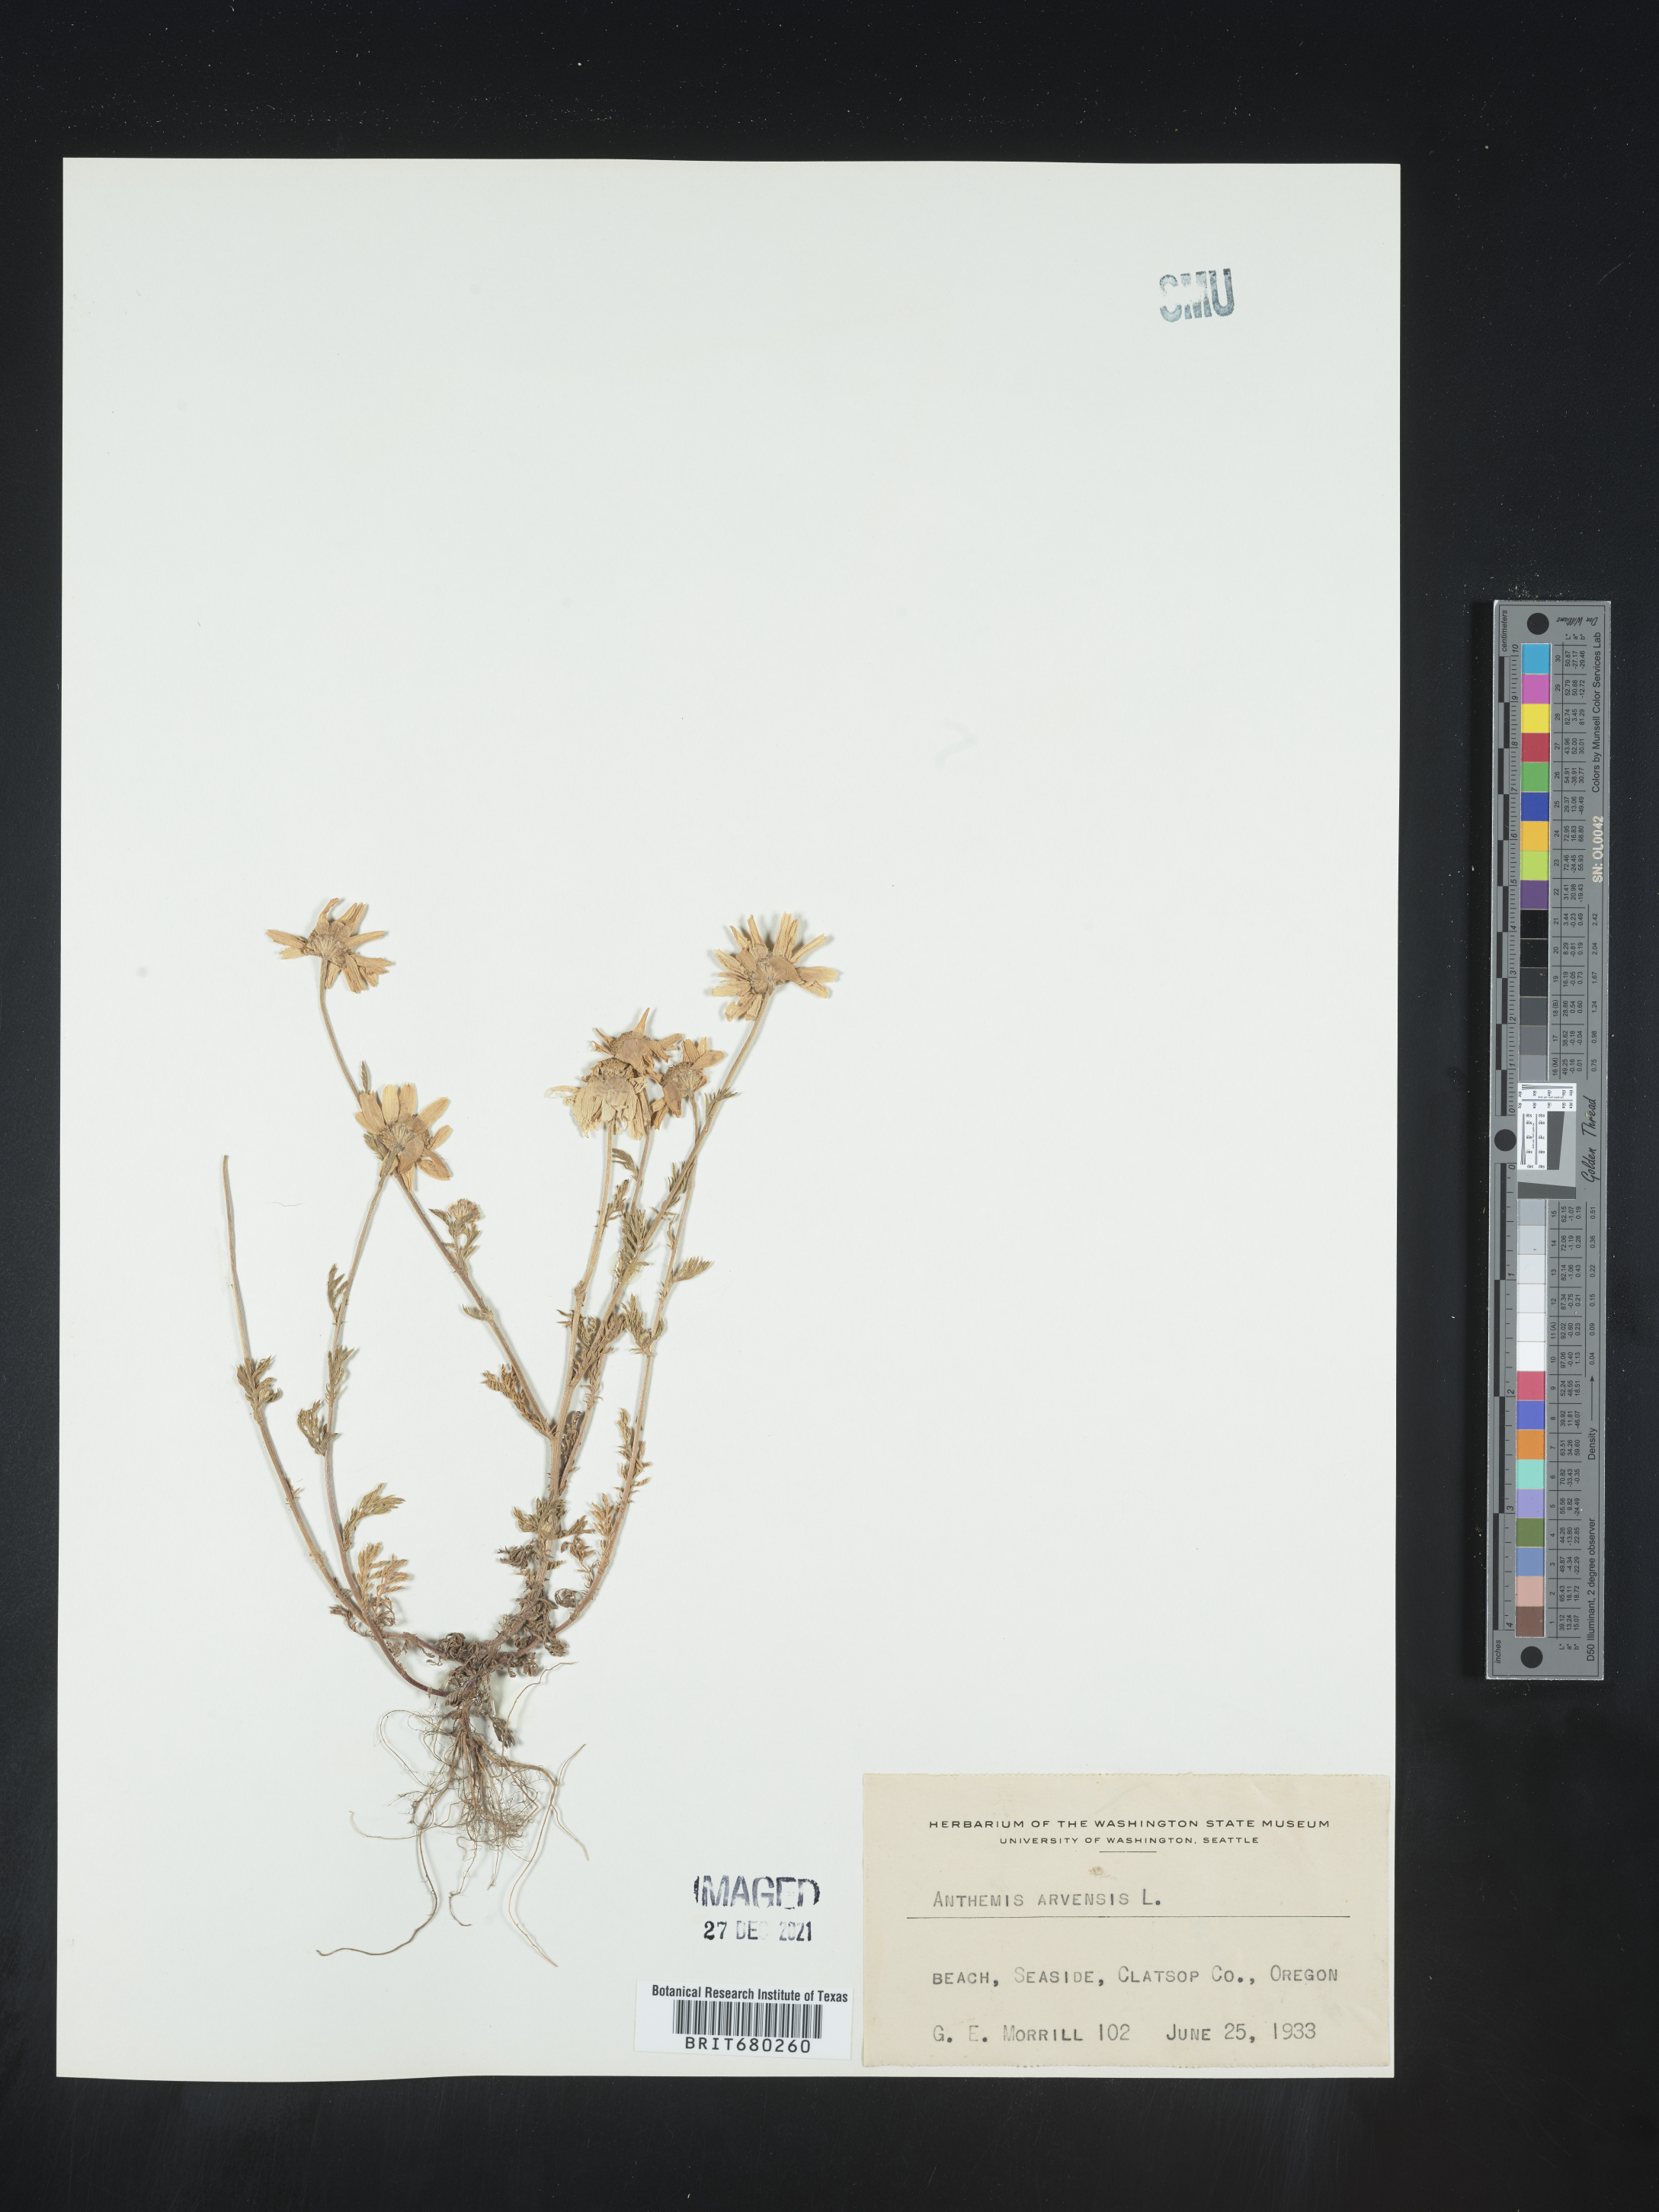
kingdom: Plantae
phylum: Tracheophyta
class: Magnoliopsida
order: Asterales
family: Asteraceae
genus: Anthemis
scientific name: Anthemis arvensis
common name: Corn chamomile
